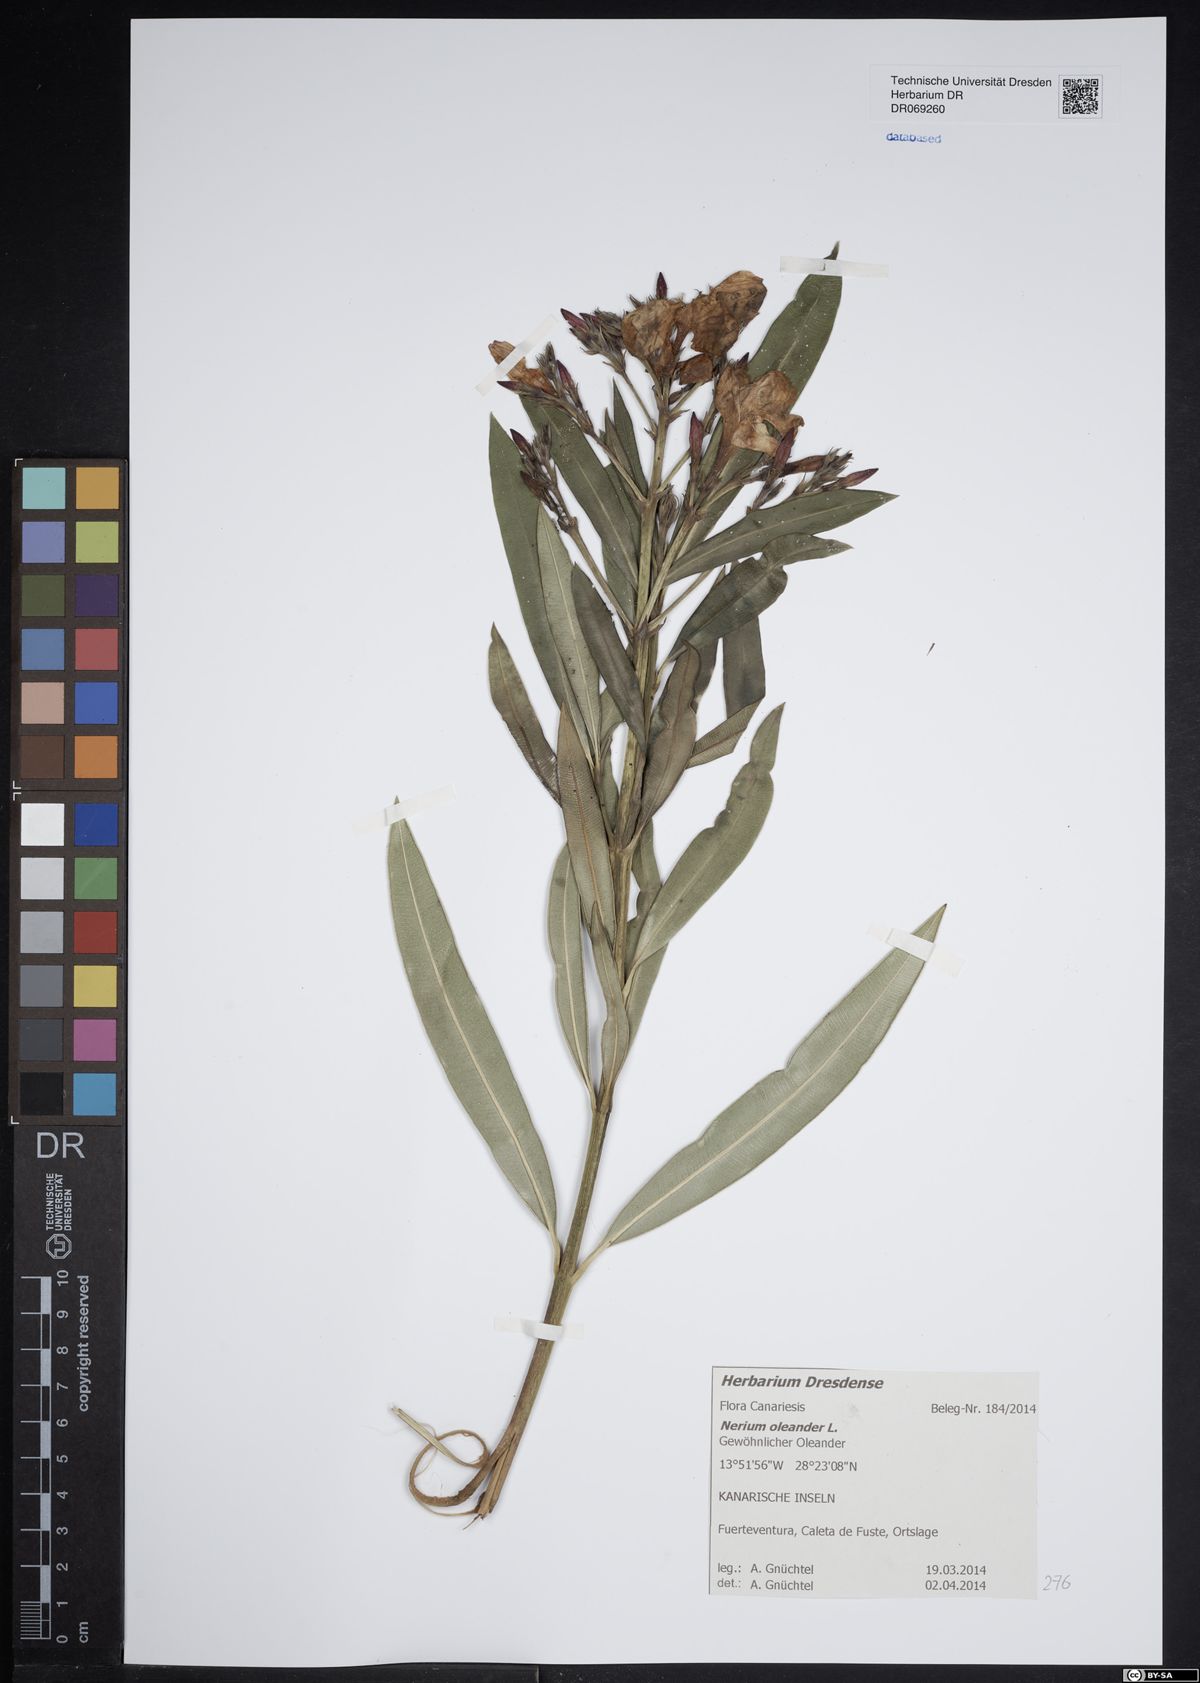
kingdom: Plantae
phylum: Tracheophyta
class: Magnoliopsida
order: Gentianales
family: Apocynaceae
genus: Nerium
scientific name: Nerium oleander
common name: Oleander
